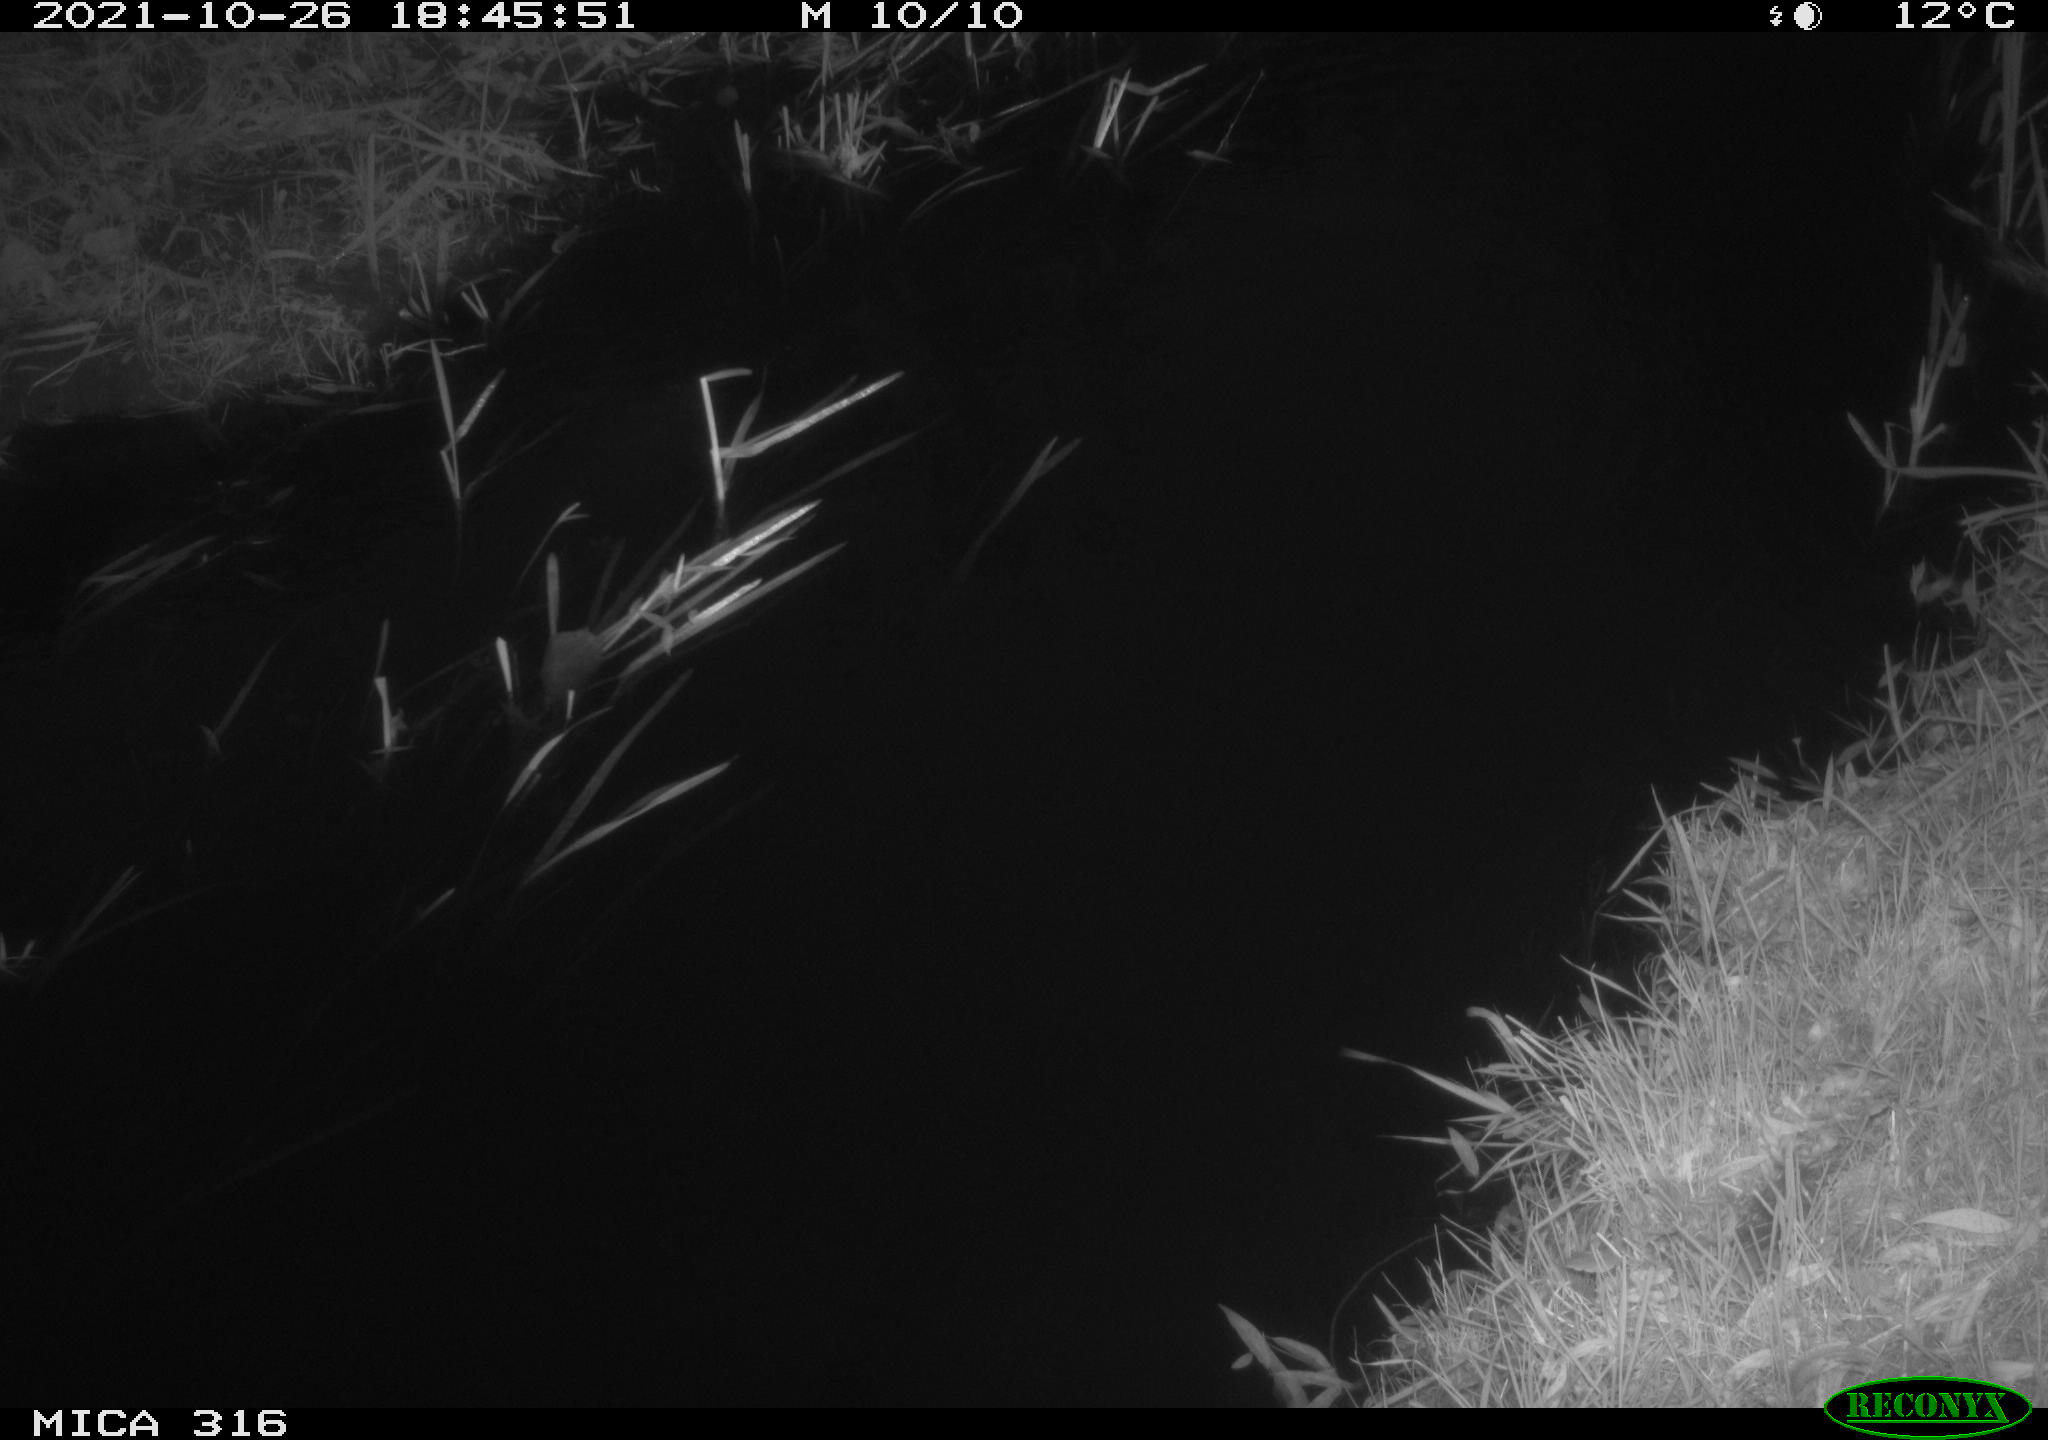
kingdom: Animalia
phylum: Chordata
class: Aves
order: Gruiformes
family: Rallidae
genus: Gallinula
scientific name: Gallinula chloropus
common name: Common moorhen
